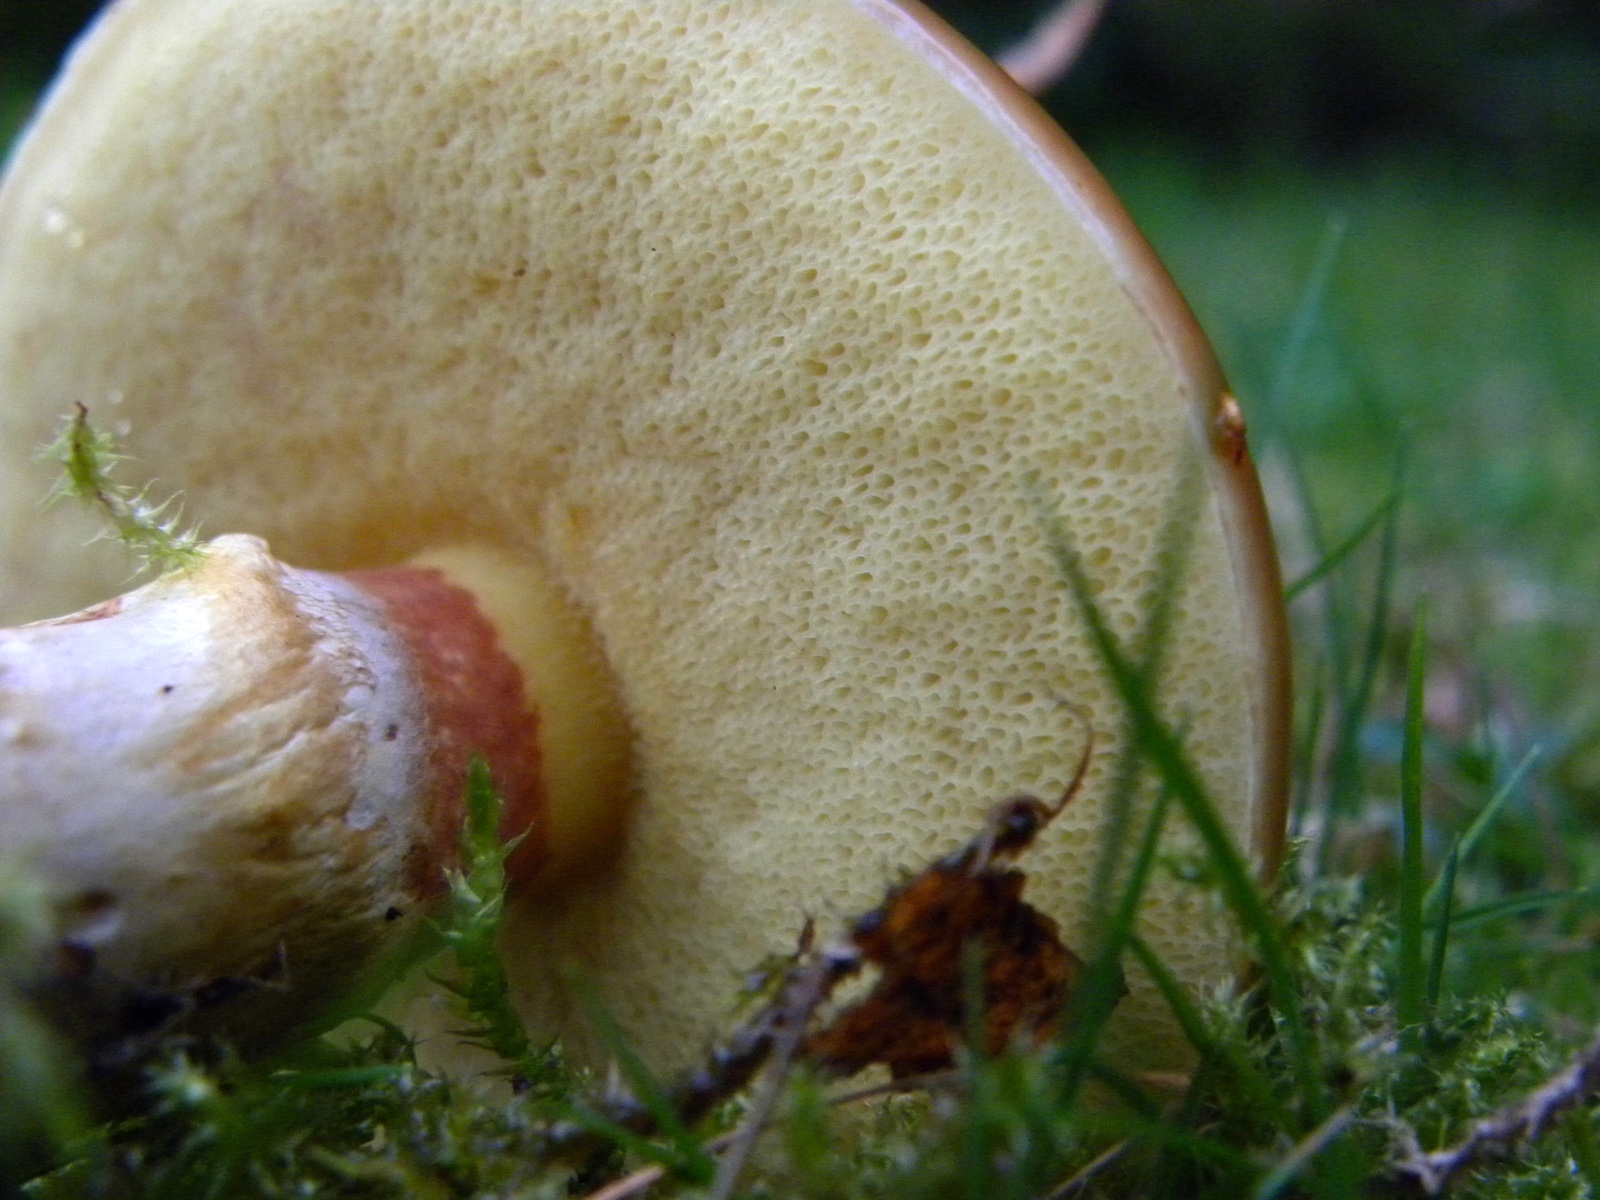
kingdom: Fungi
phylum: Basidiomycota
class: Agaricomycetes
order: Boletales
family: Suillaceae
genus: Suillus
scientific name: Suillus grevillei
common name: lærke-slimrørhat
